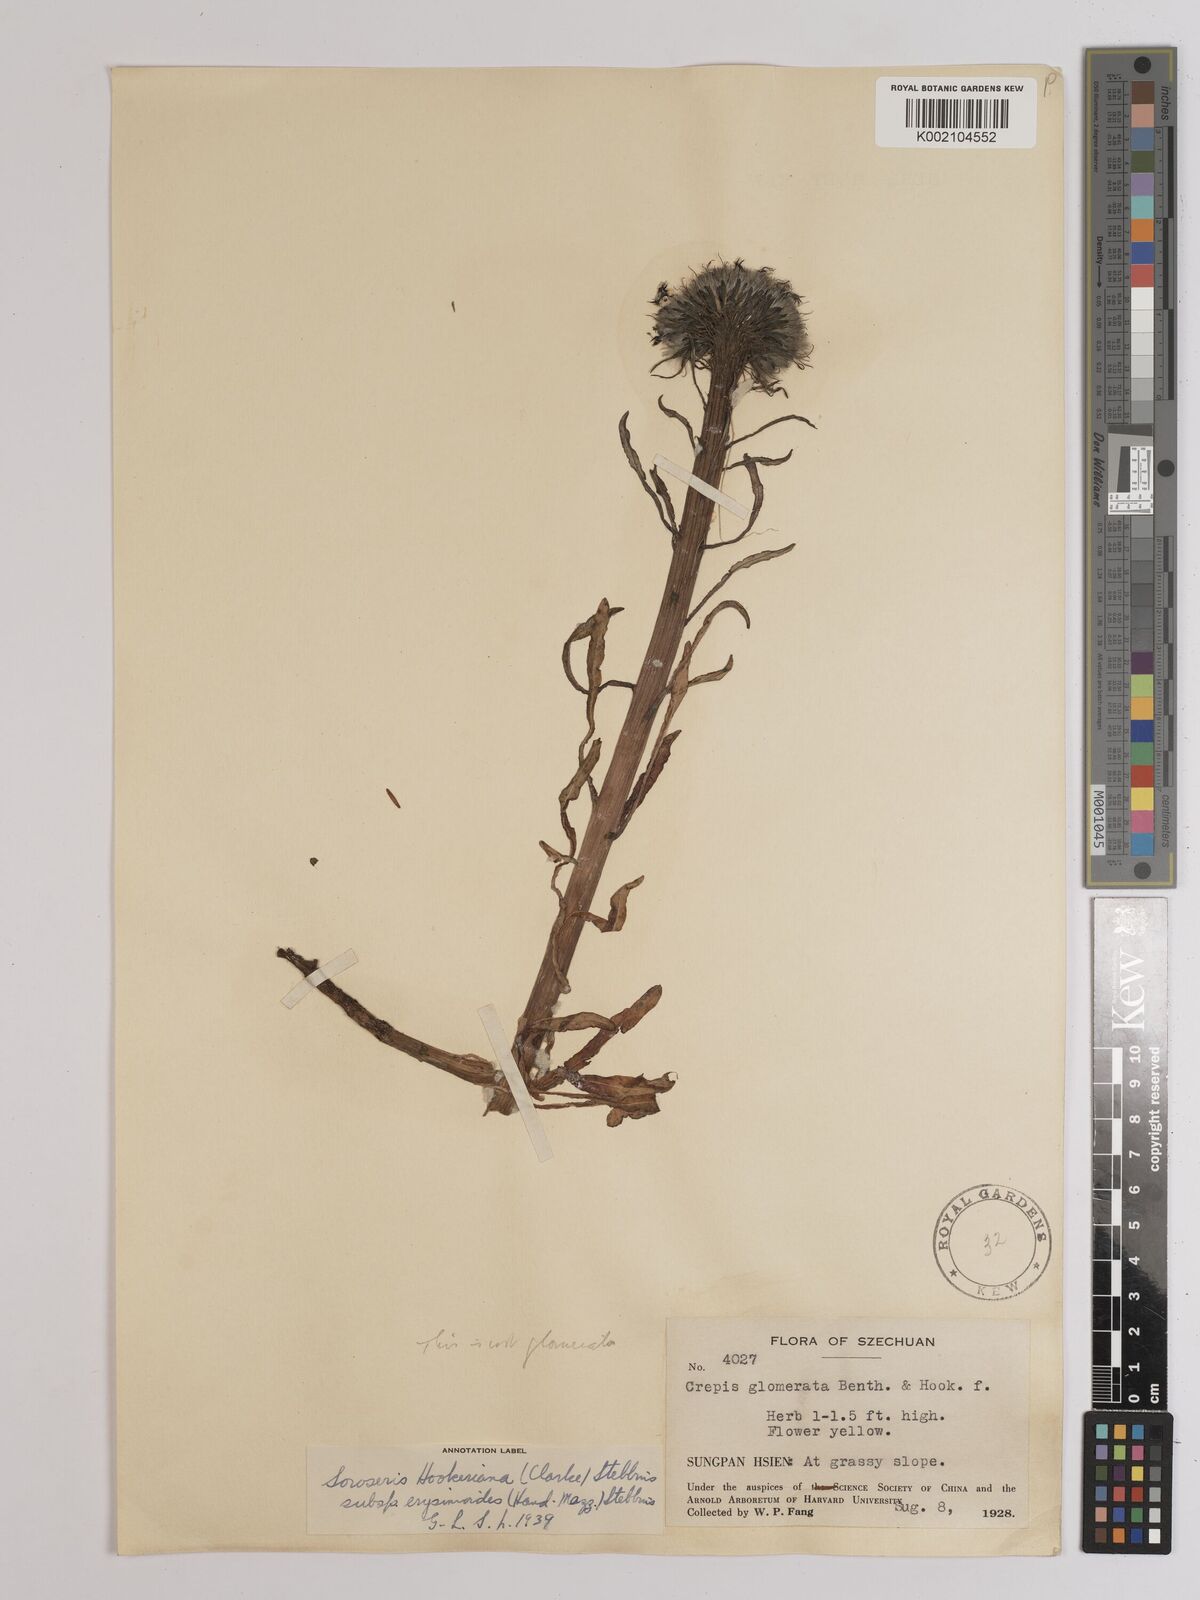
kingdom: Plantae
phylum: Tracheophyta
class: Magnoliopsida
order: Asterales
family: Asteraceae
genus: Soroseris
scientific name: Soroseris hookeriana
